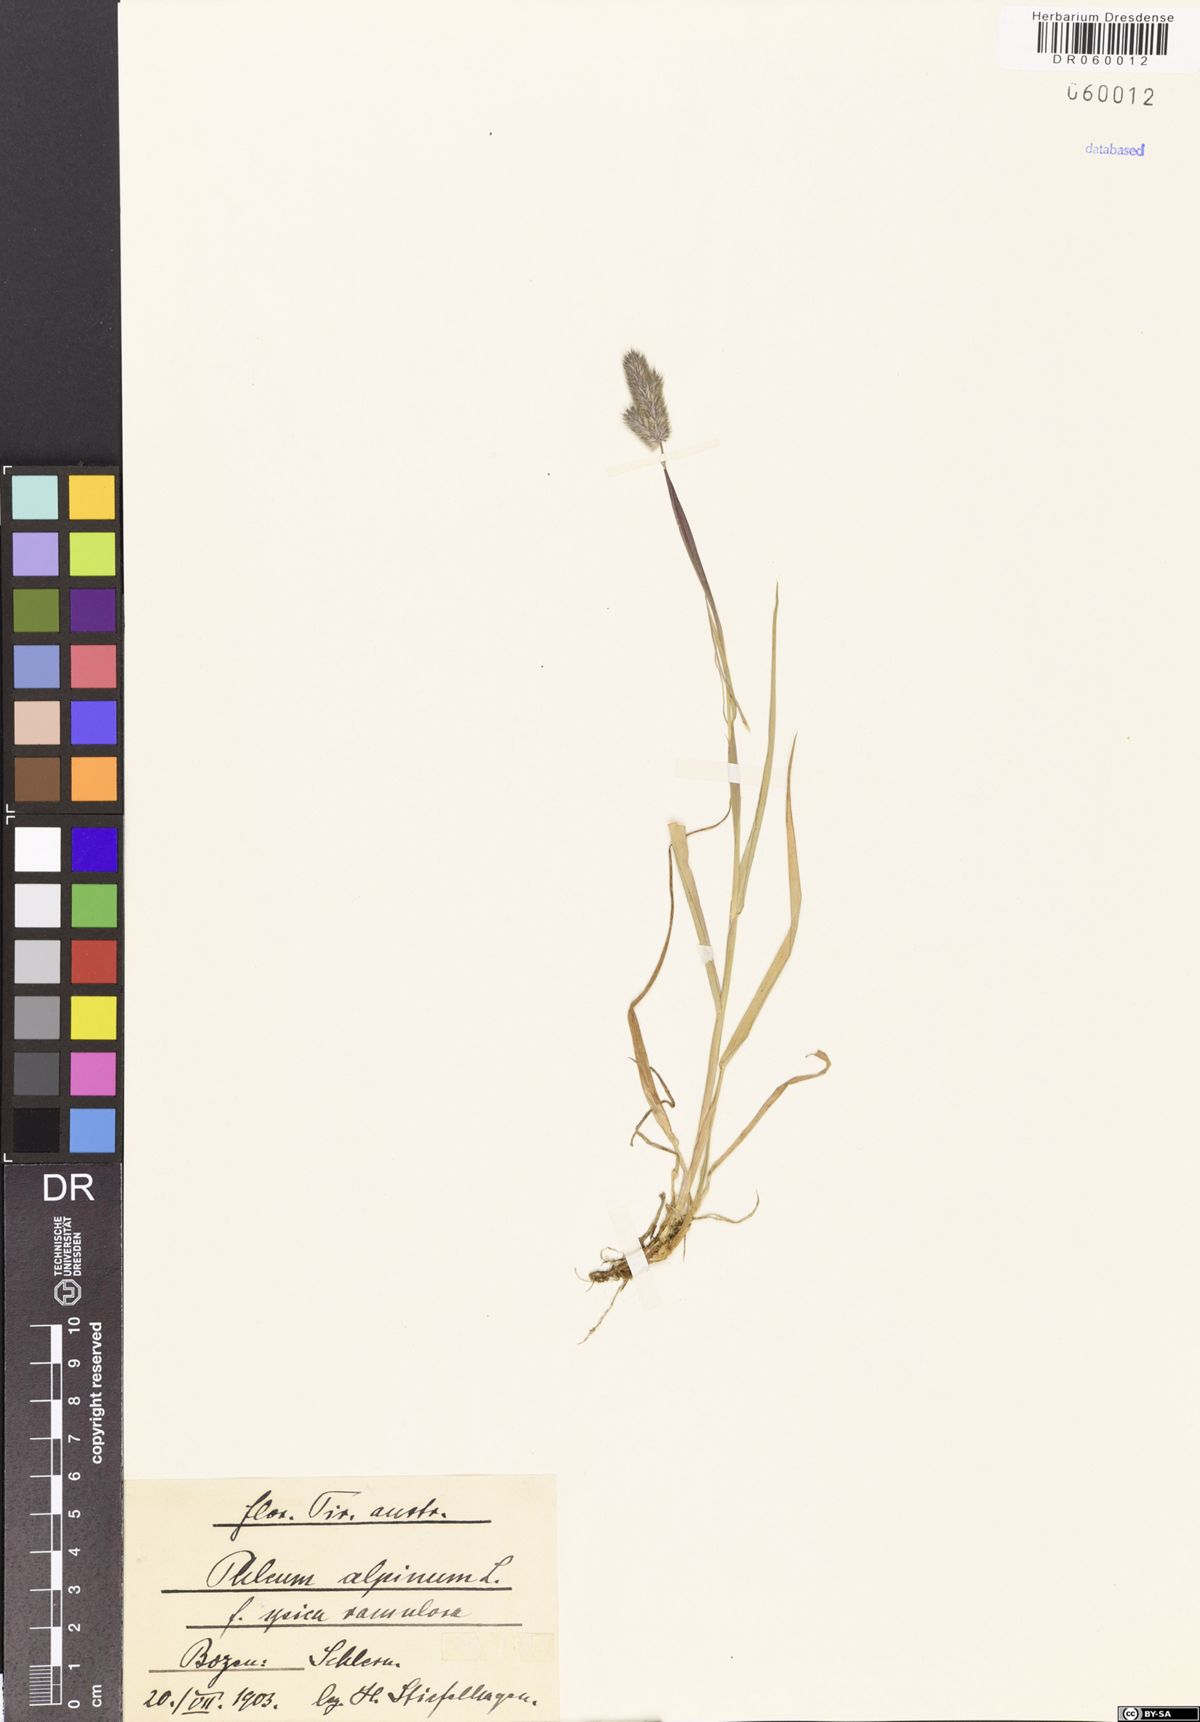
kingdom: Plantae
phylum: Tracheophyta
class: Liliopsida
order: Poales
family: Poaceae
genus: Phleum
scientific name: Phleum alpinum
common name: Alpine cat's-tail
